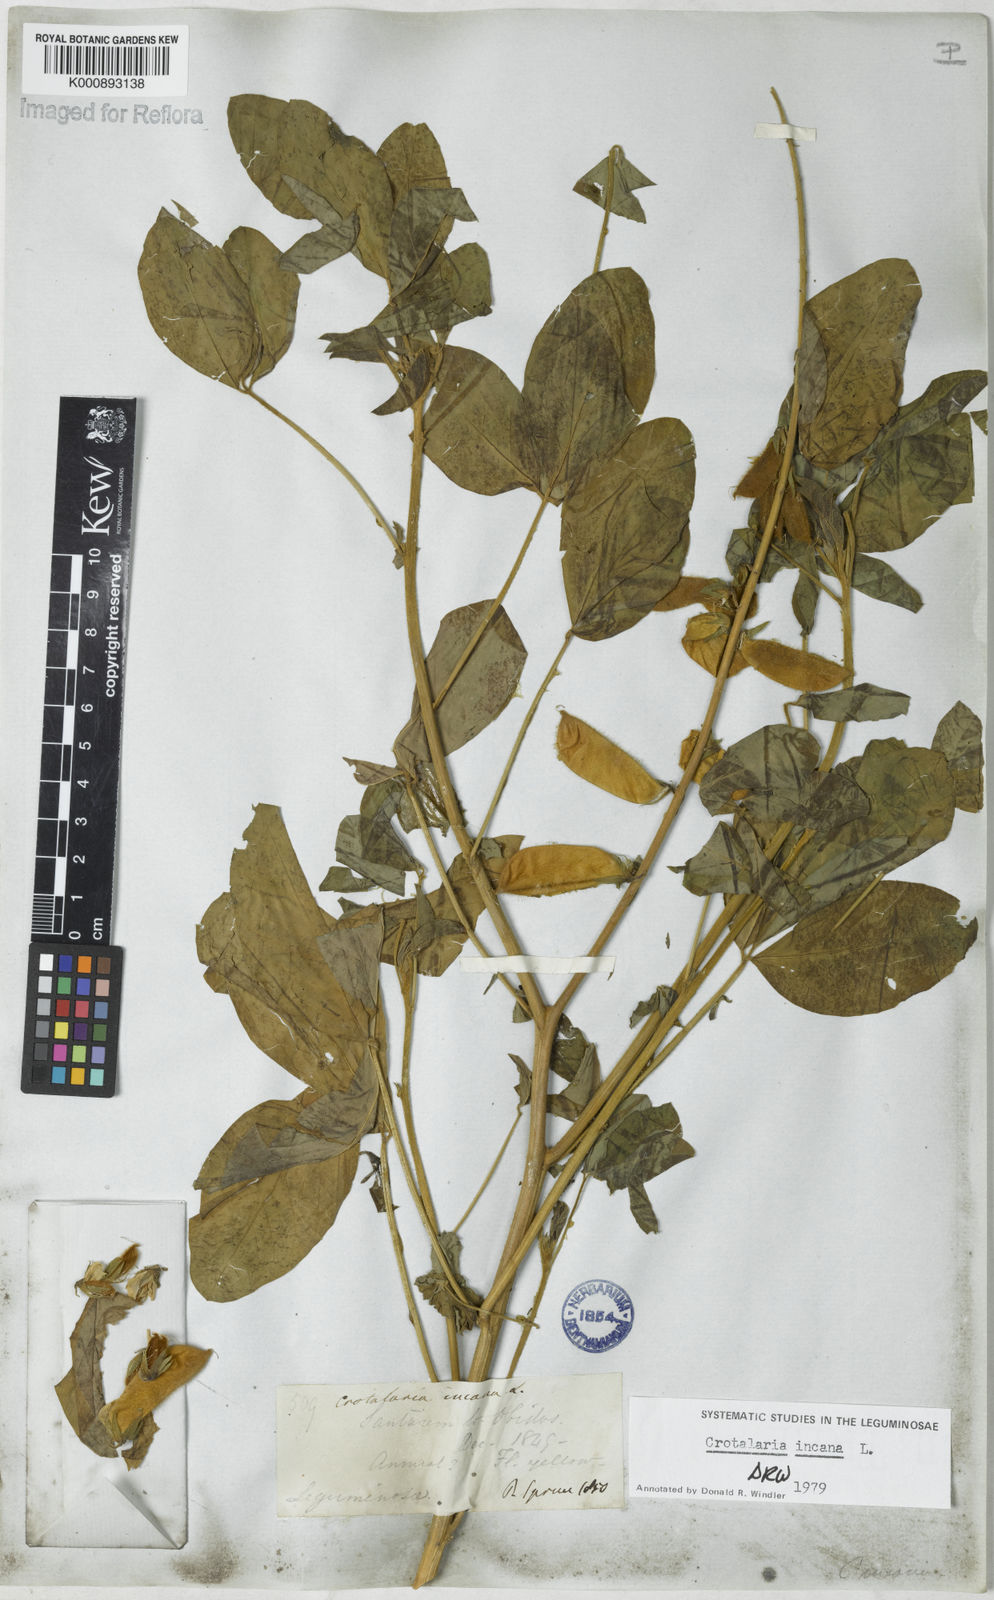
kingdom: Plantae
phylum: Tracheophyta
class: Magnoliopsida
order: Fabales
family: Fabaceae
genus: Crotalaria
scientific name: Crotalaria incana
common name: Shakeshake
